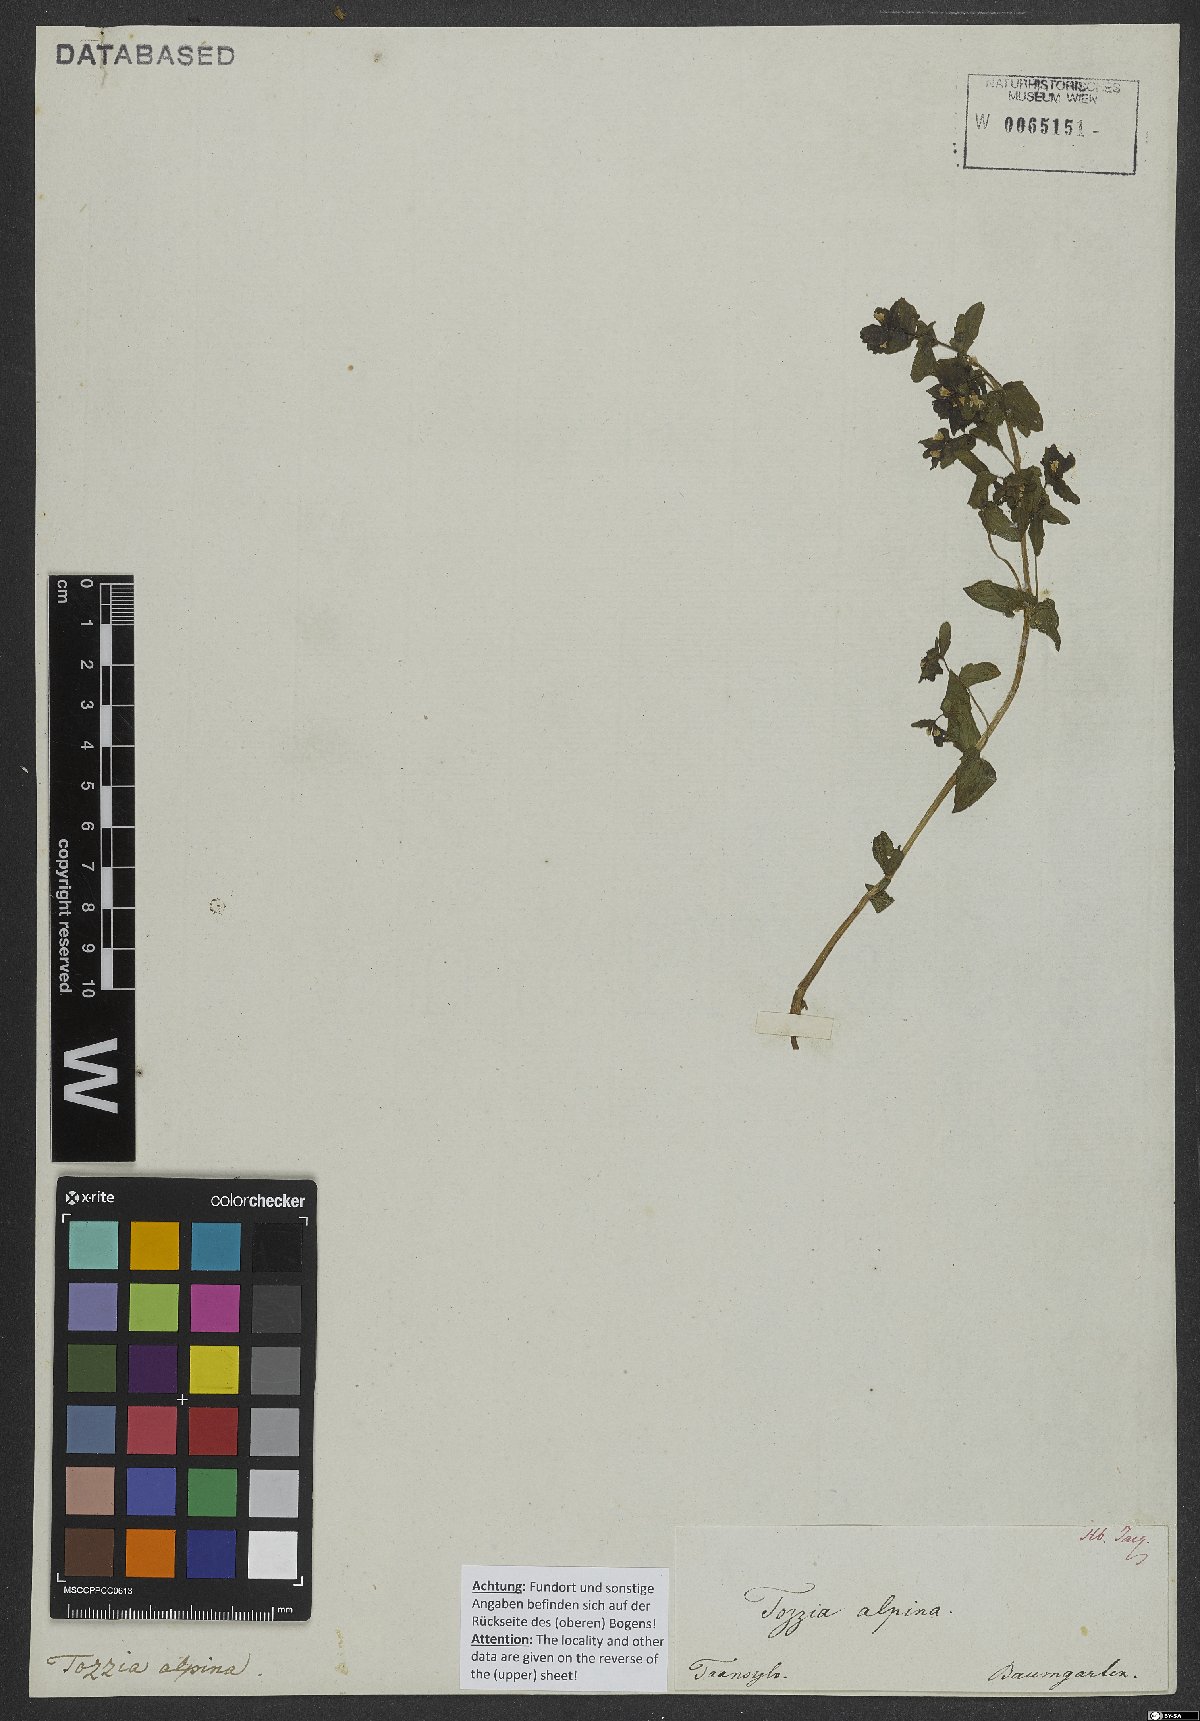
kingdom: Plantae
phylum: Tracheophyta
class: Magnoliopsida
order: Lamiales
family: Orobanchaceae
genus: Tozzia
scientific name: Tozzia alpina
